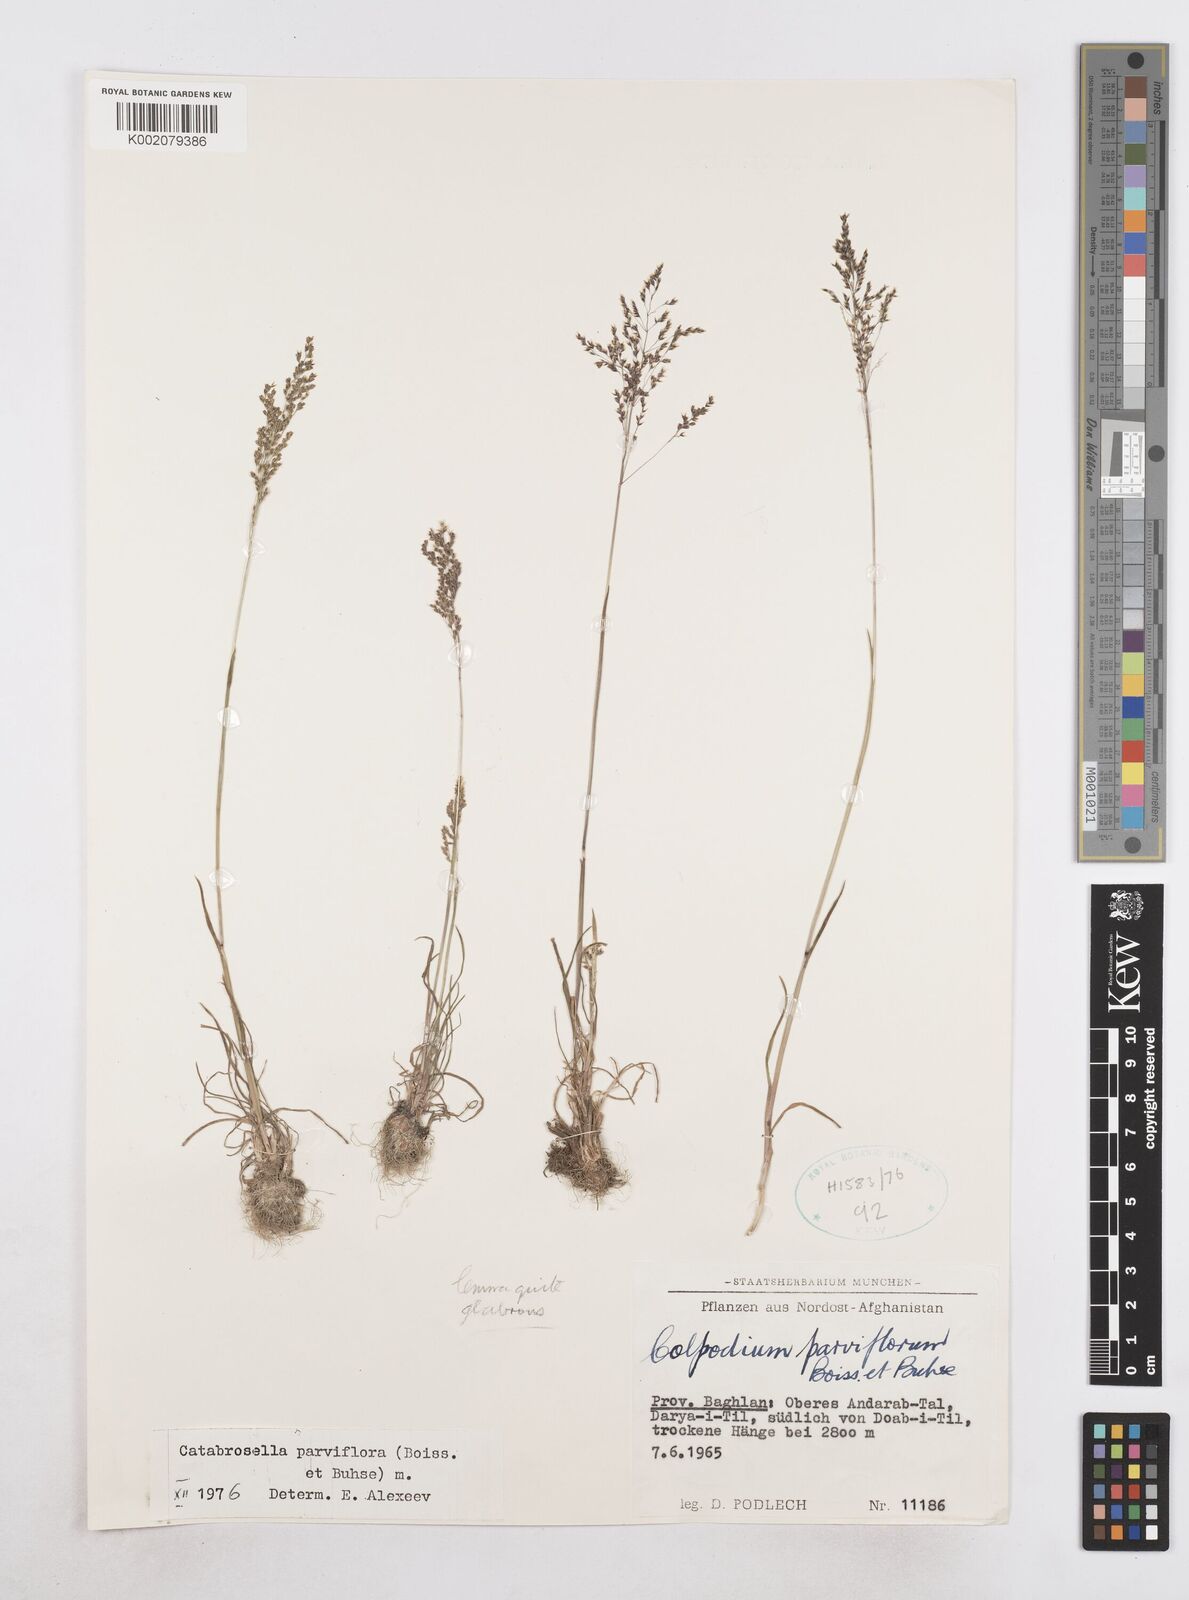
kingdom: Plantae
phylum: Tracheophyta
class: Liliopsida
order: Poales
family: Poaceae
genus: Catabrosella
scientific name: Catabrosella humilis
